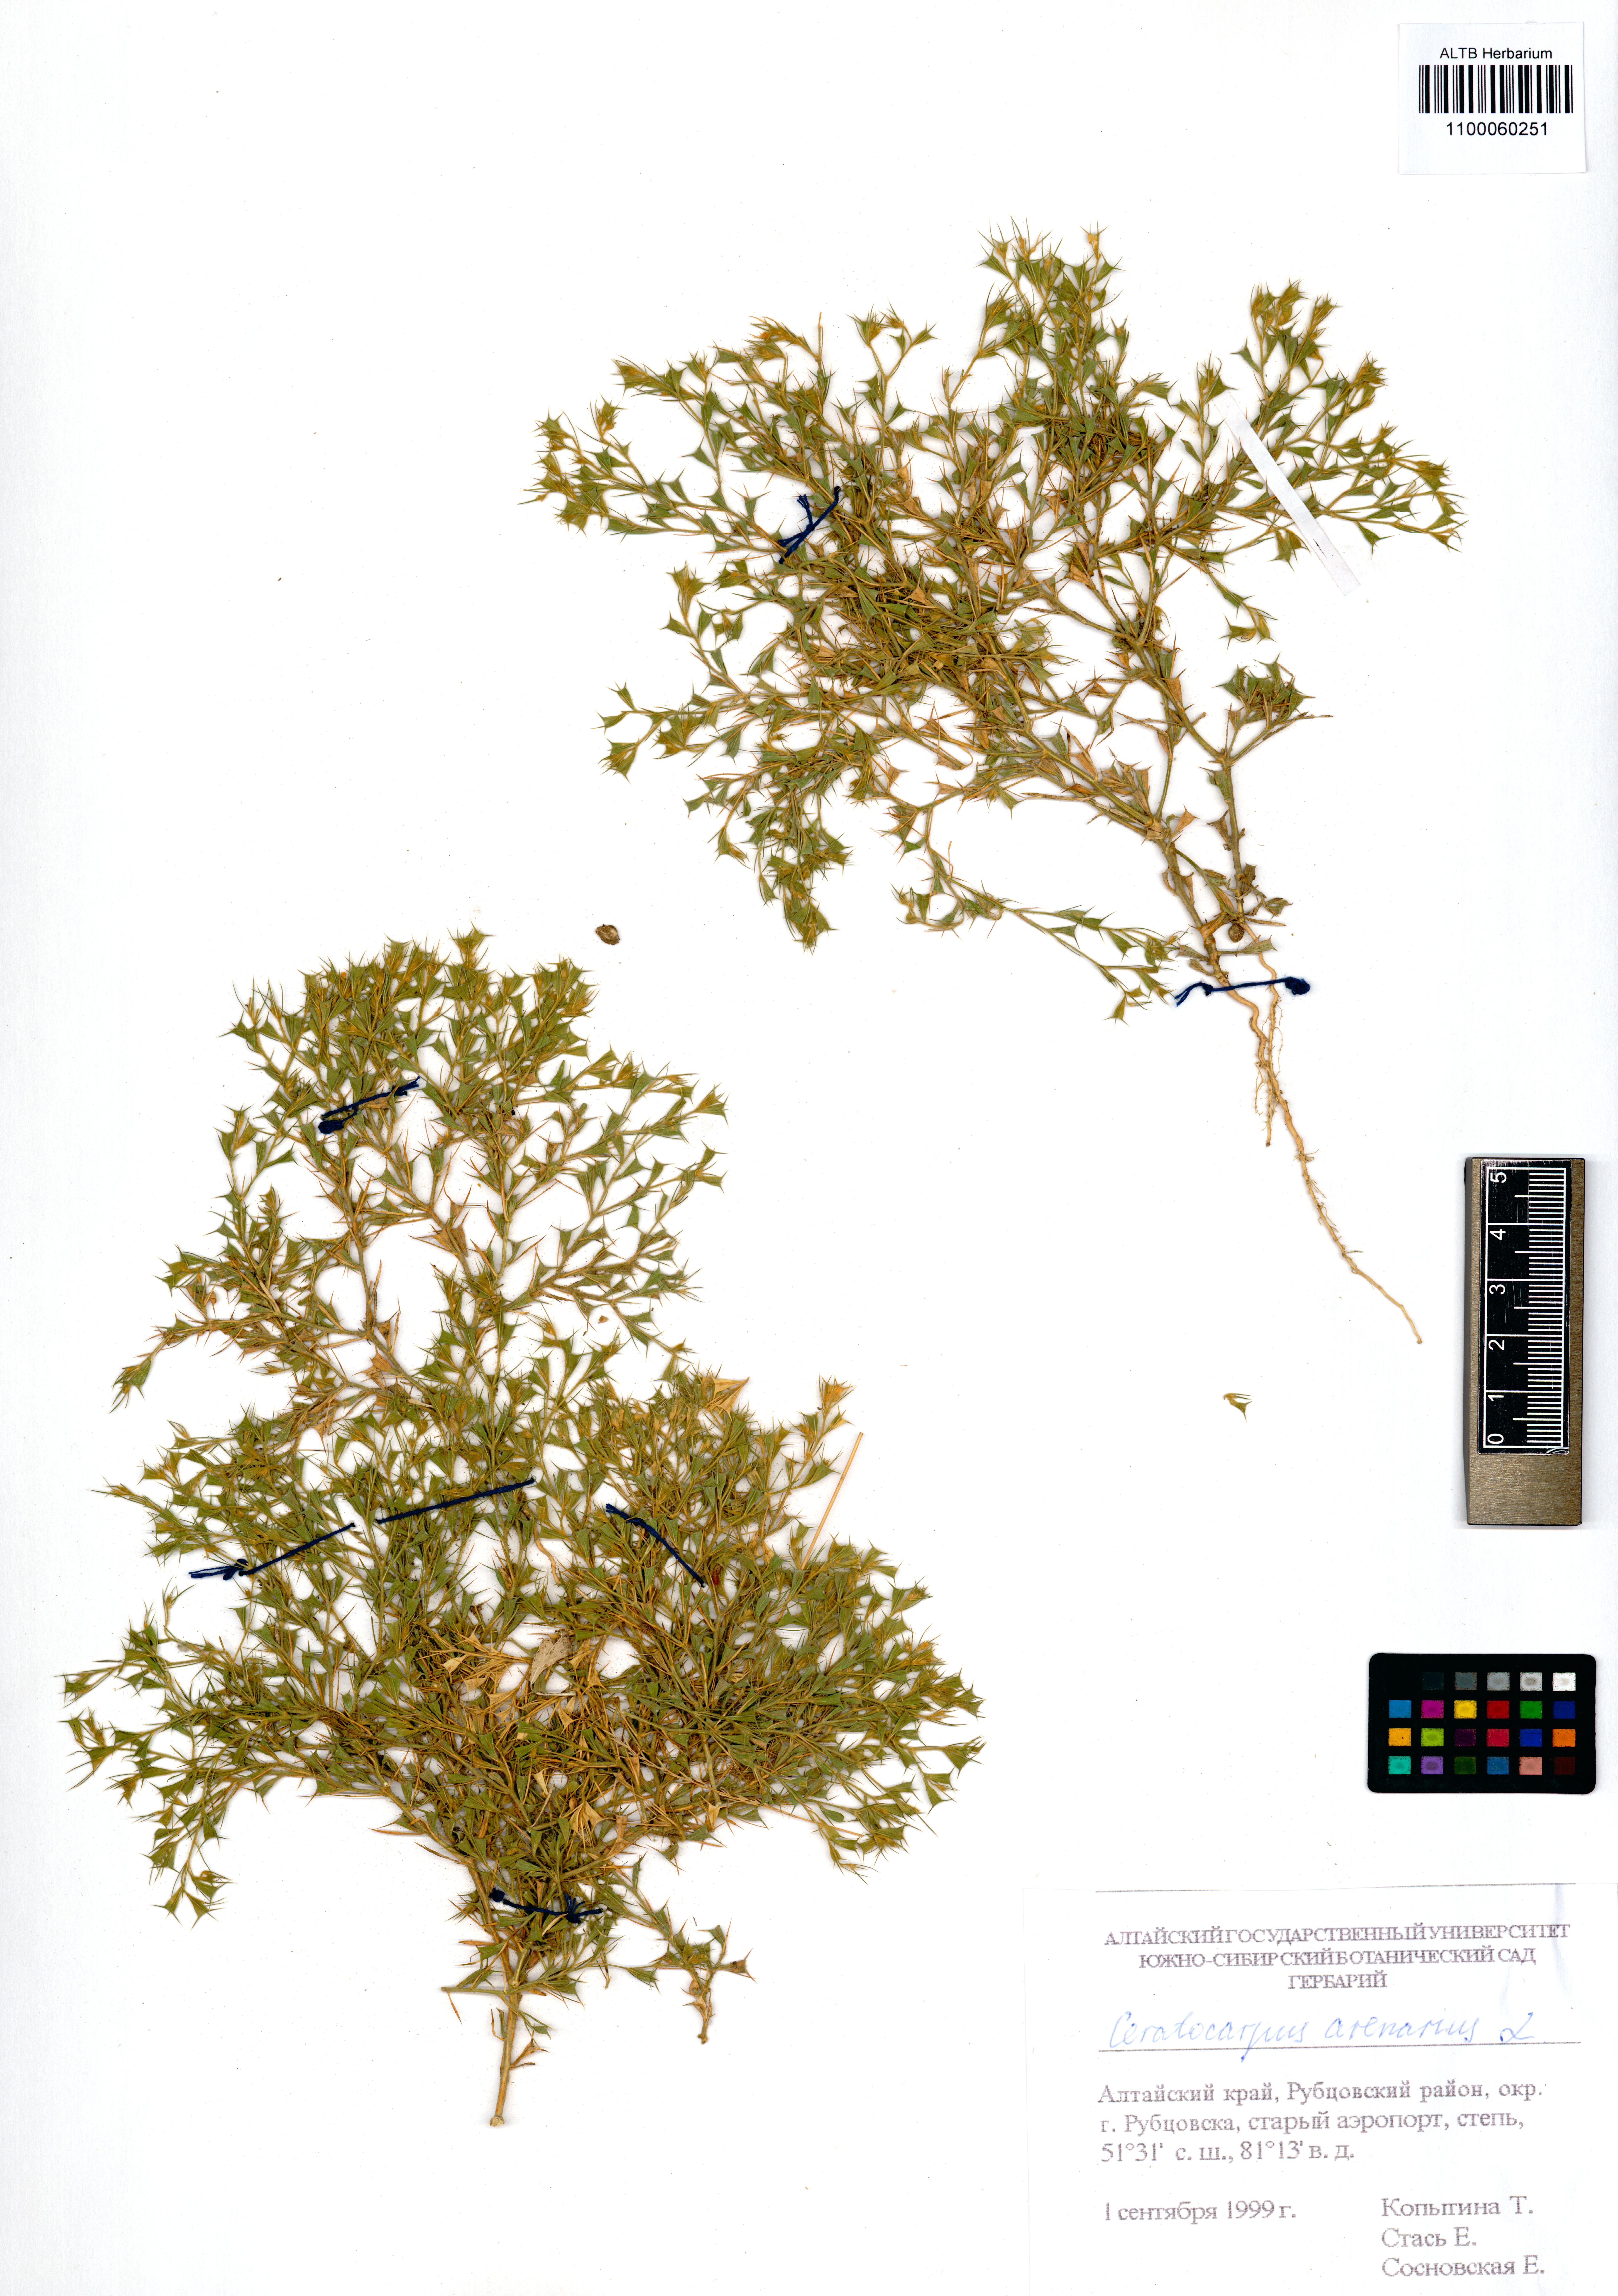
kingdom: Plantae
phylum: Tracheophyta
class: Magnoliopsida
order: Caryophyllales
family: Amaranthaceae
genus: Ceratocarpus
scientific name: Ceratocarpus arenarius
